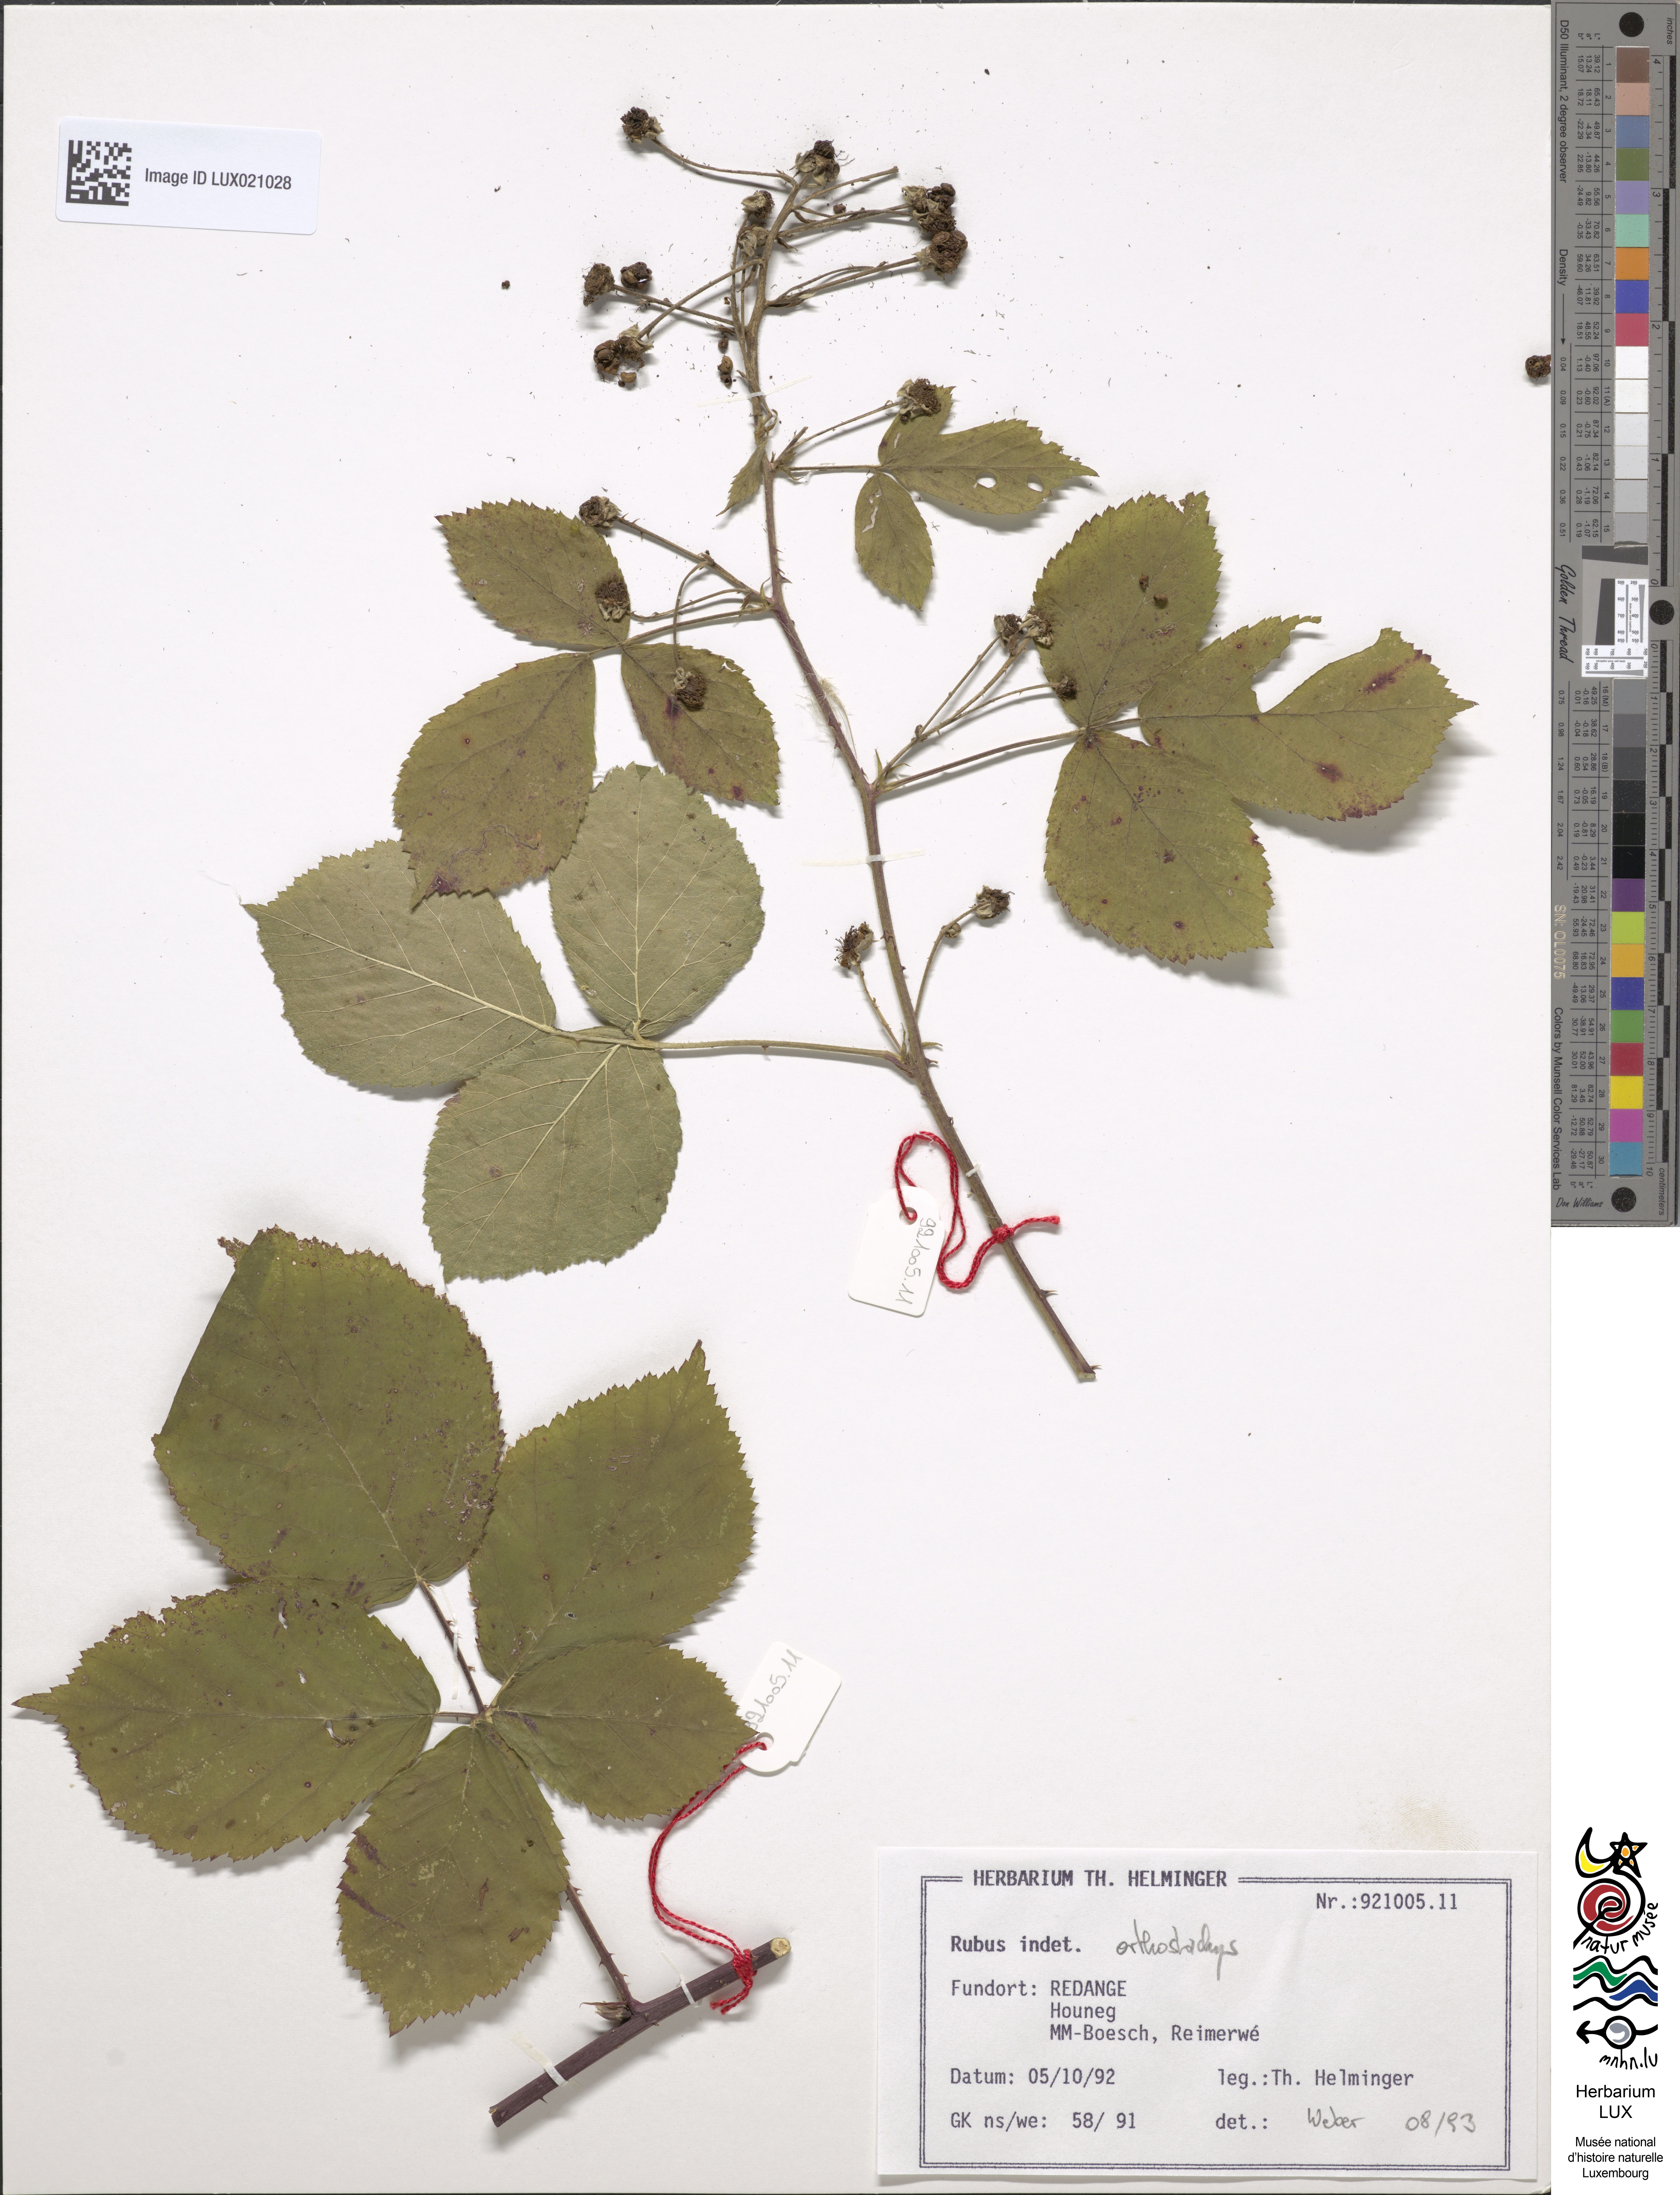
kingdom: Plantae
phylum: Tracheophyta
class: Magnoliopsida
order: Rosales
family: Rosaceae
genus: Rubus
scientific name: Rubus orthostachys
